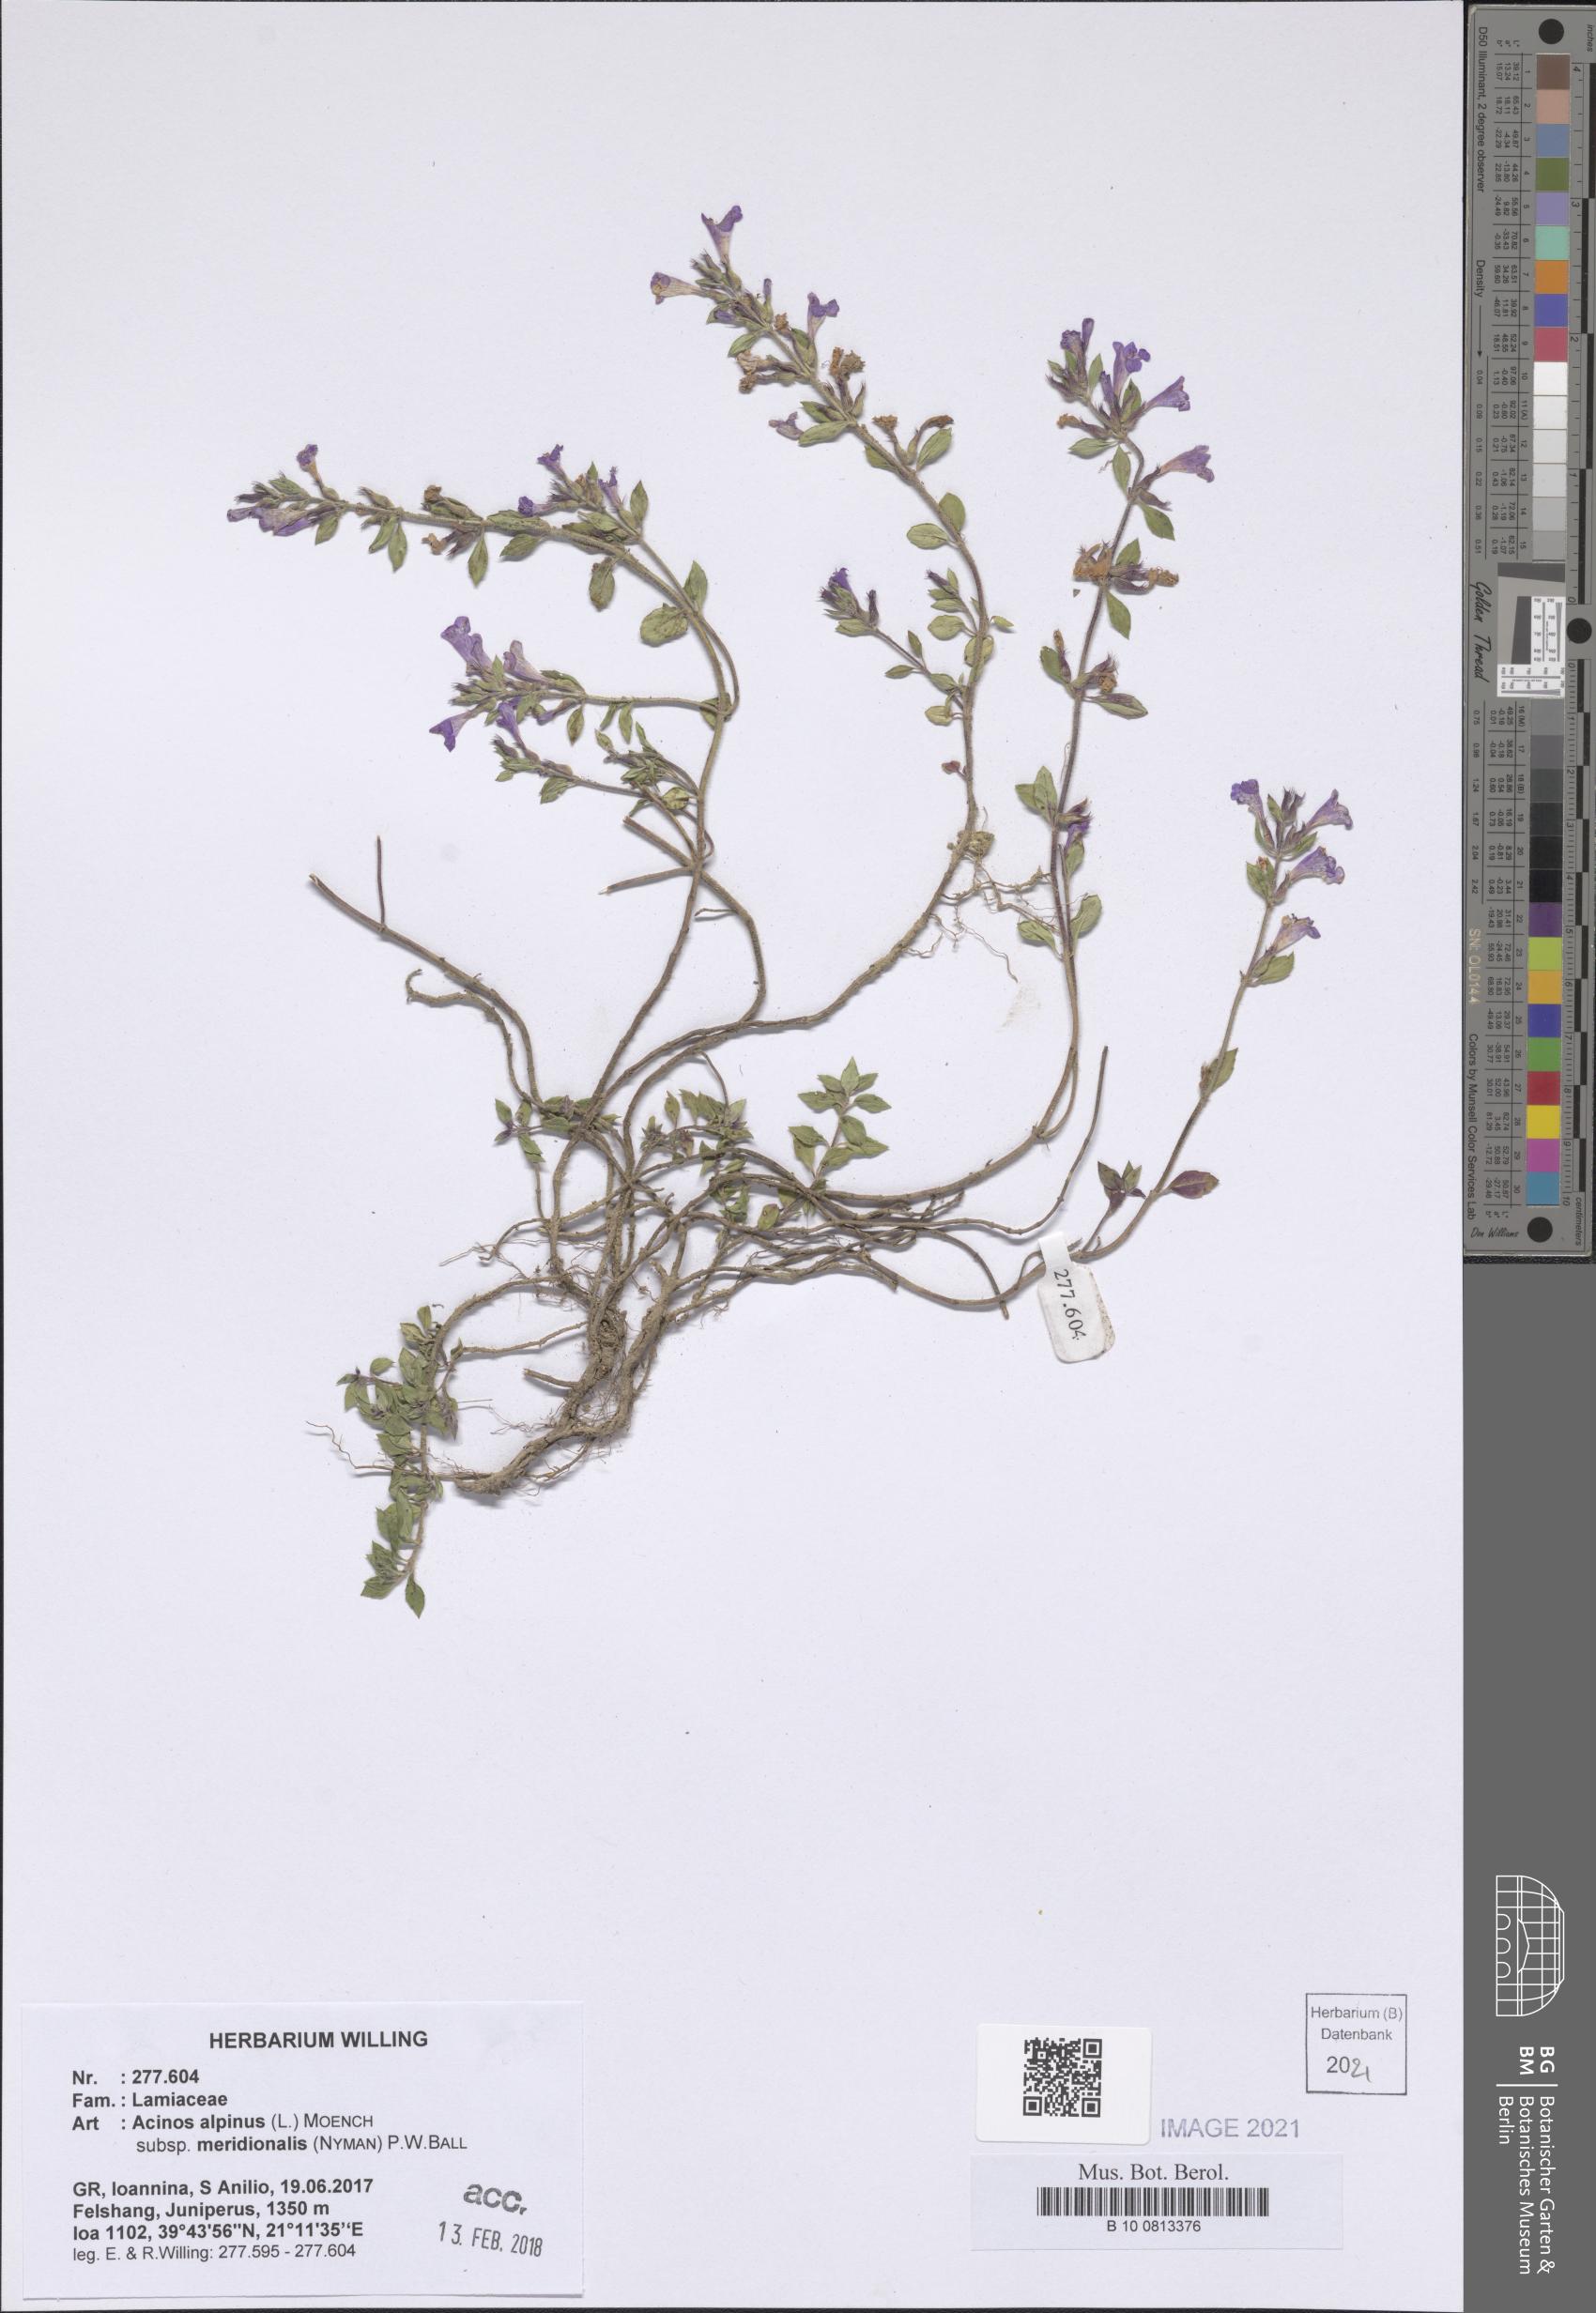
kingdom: Plantae
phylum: Tracheophyta
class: Magnoliopsida
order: Lamiales
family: Lamiaceae
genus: Clinopodium
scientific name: Clinopodium alpinum
